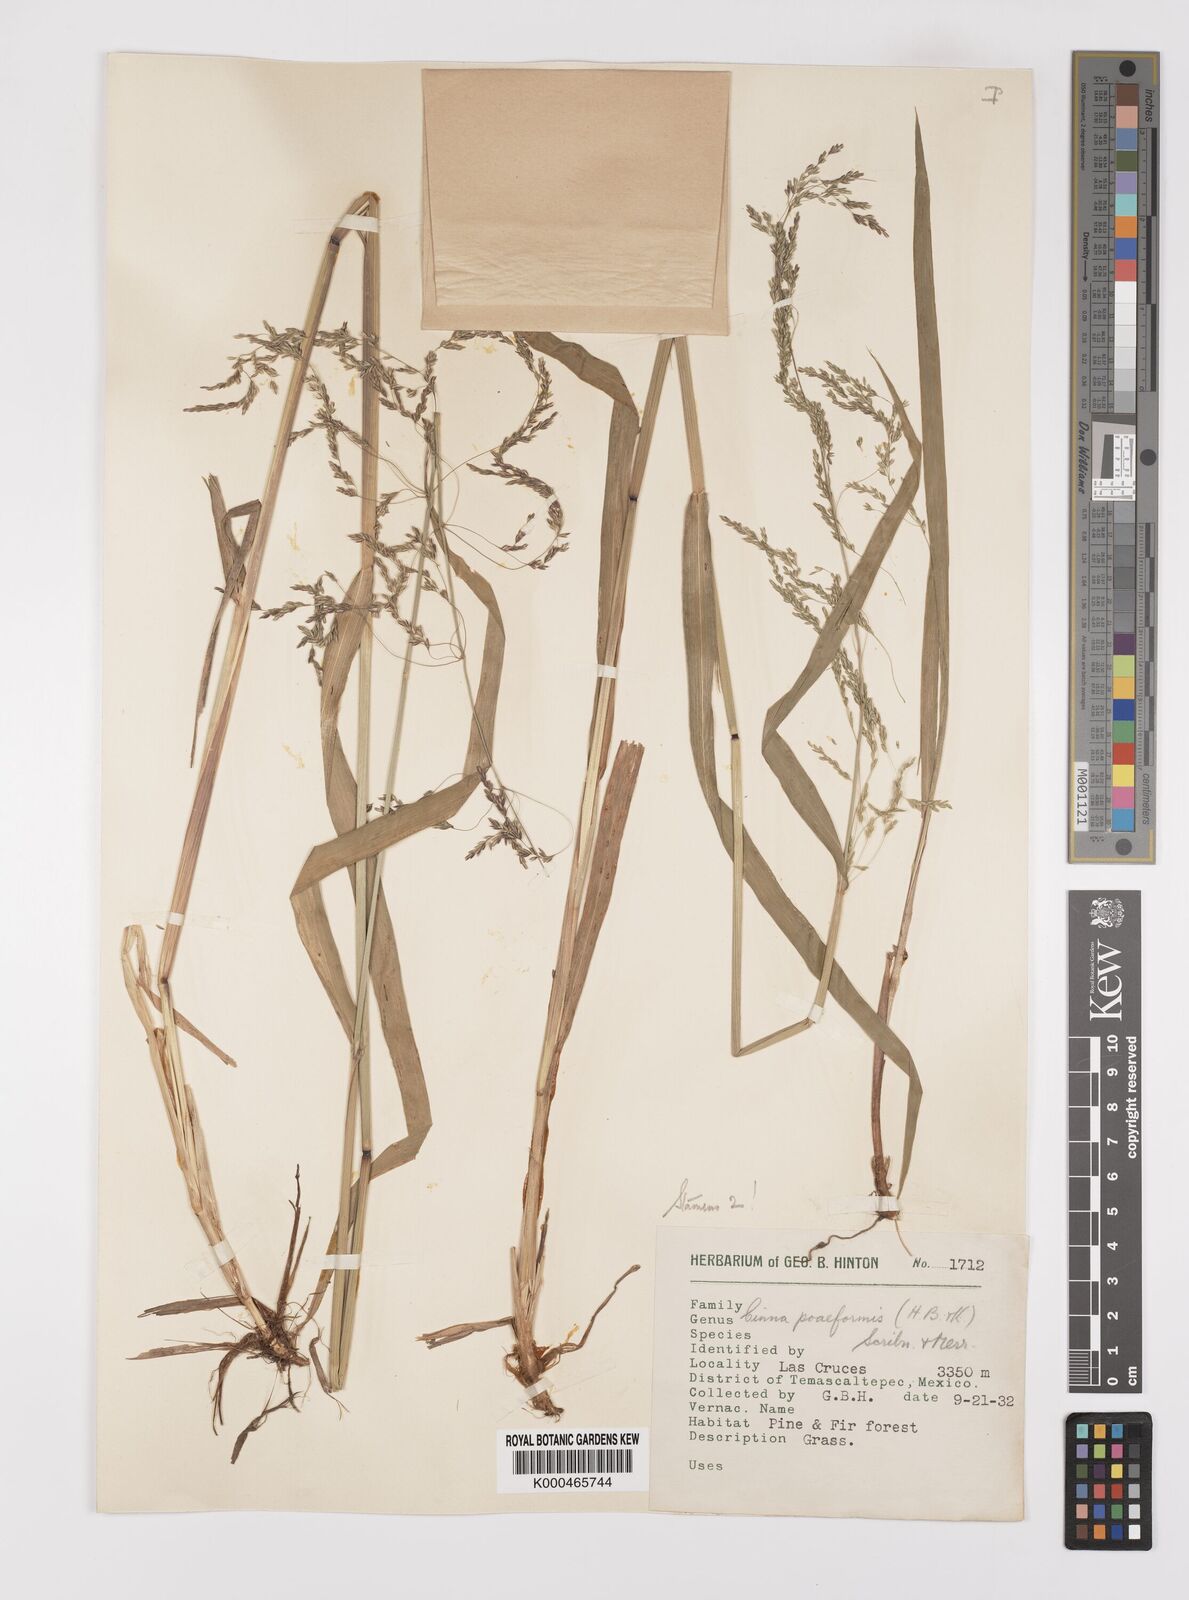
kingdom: Plantae
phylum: Tracheophyta
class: Liliopsida
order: Poales
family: Poaceae
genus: Cinnastrum
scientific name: Cinnastrum poiforme
